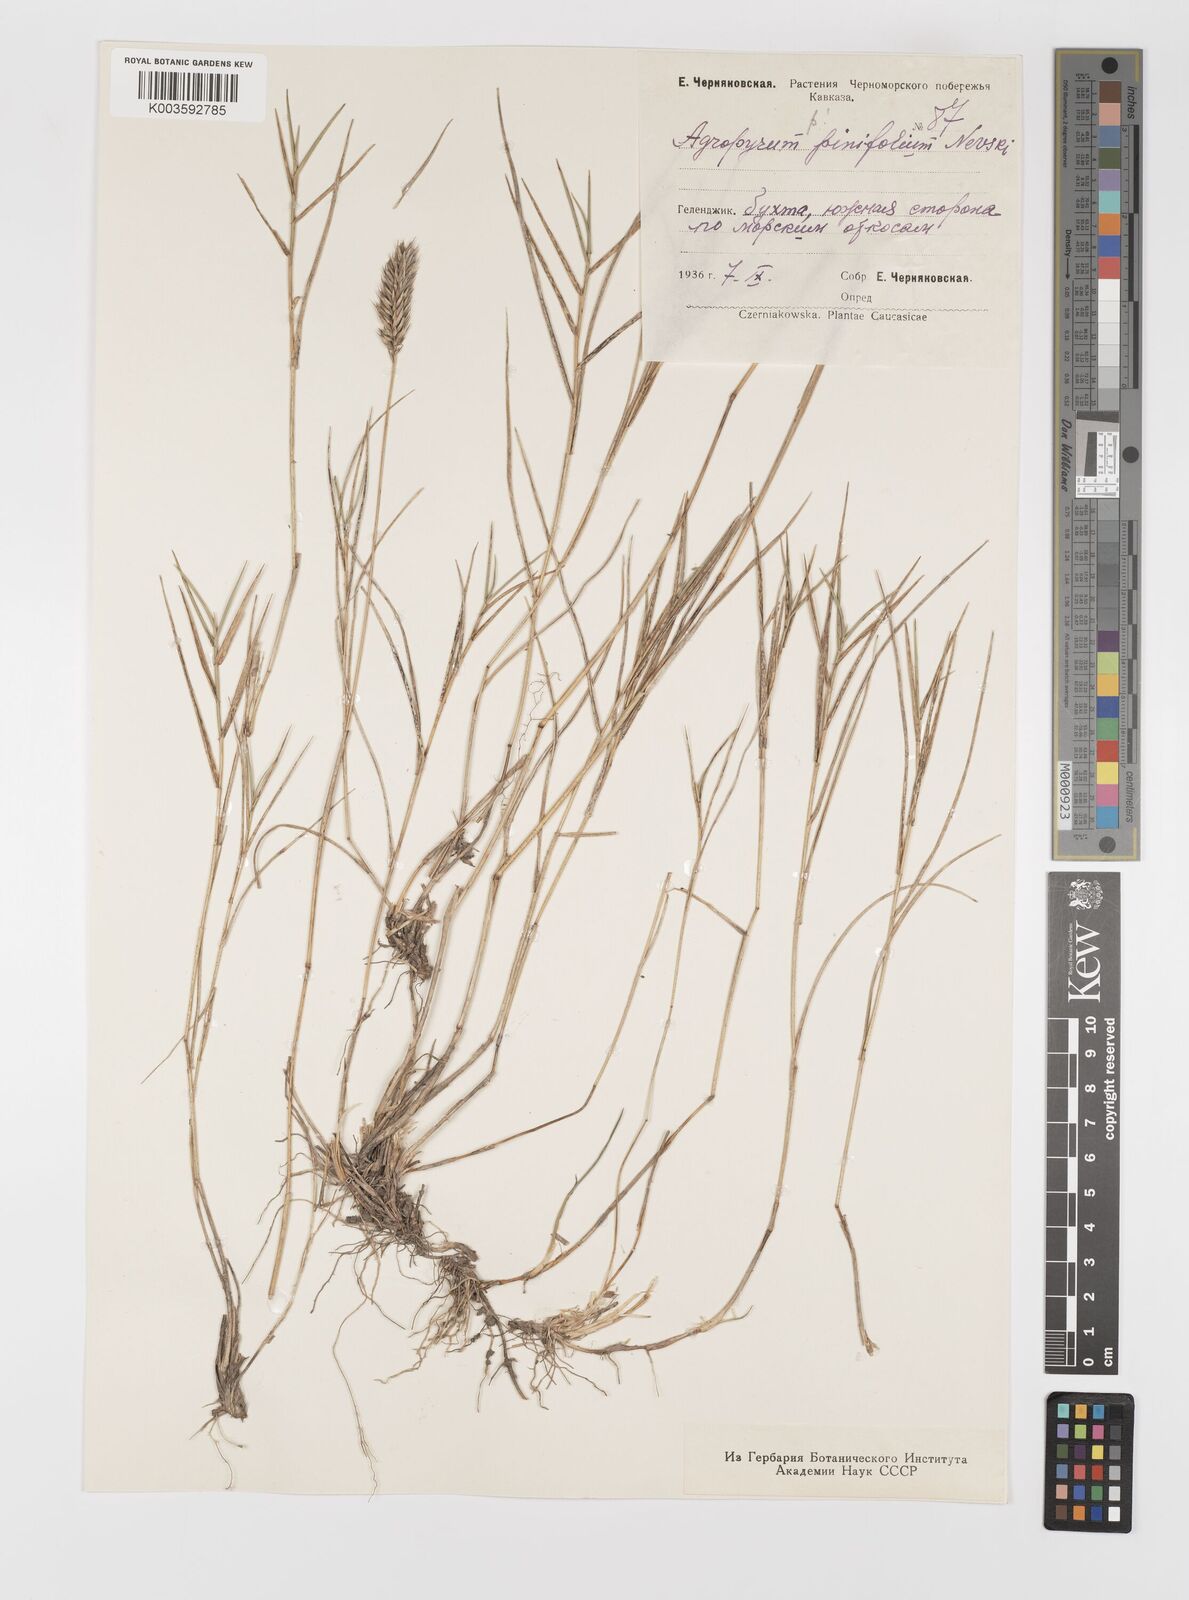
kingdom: Plantae
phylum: Tracheophyta
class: Liliopsida
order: Poales
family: Poaceae
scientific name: Poaceae
